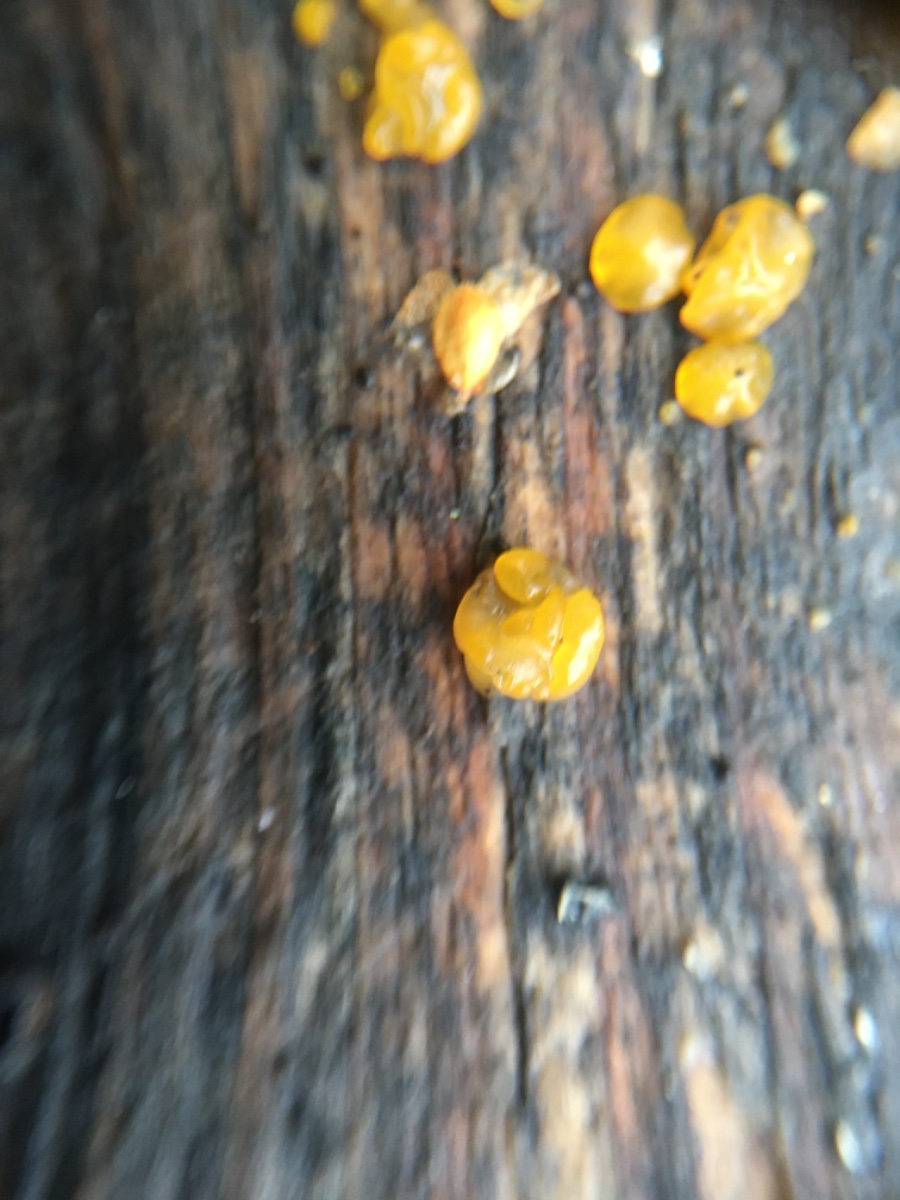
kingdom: Fungi
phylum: Basidiomycota
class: Dacrymycetes
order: Dacrymycetales
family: Dacrymycetaceae
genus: Dacrymyces
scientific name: Dacrymyces
